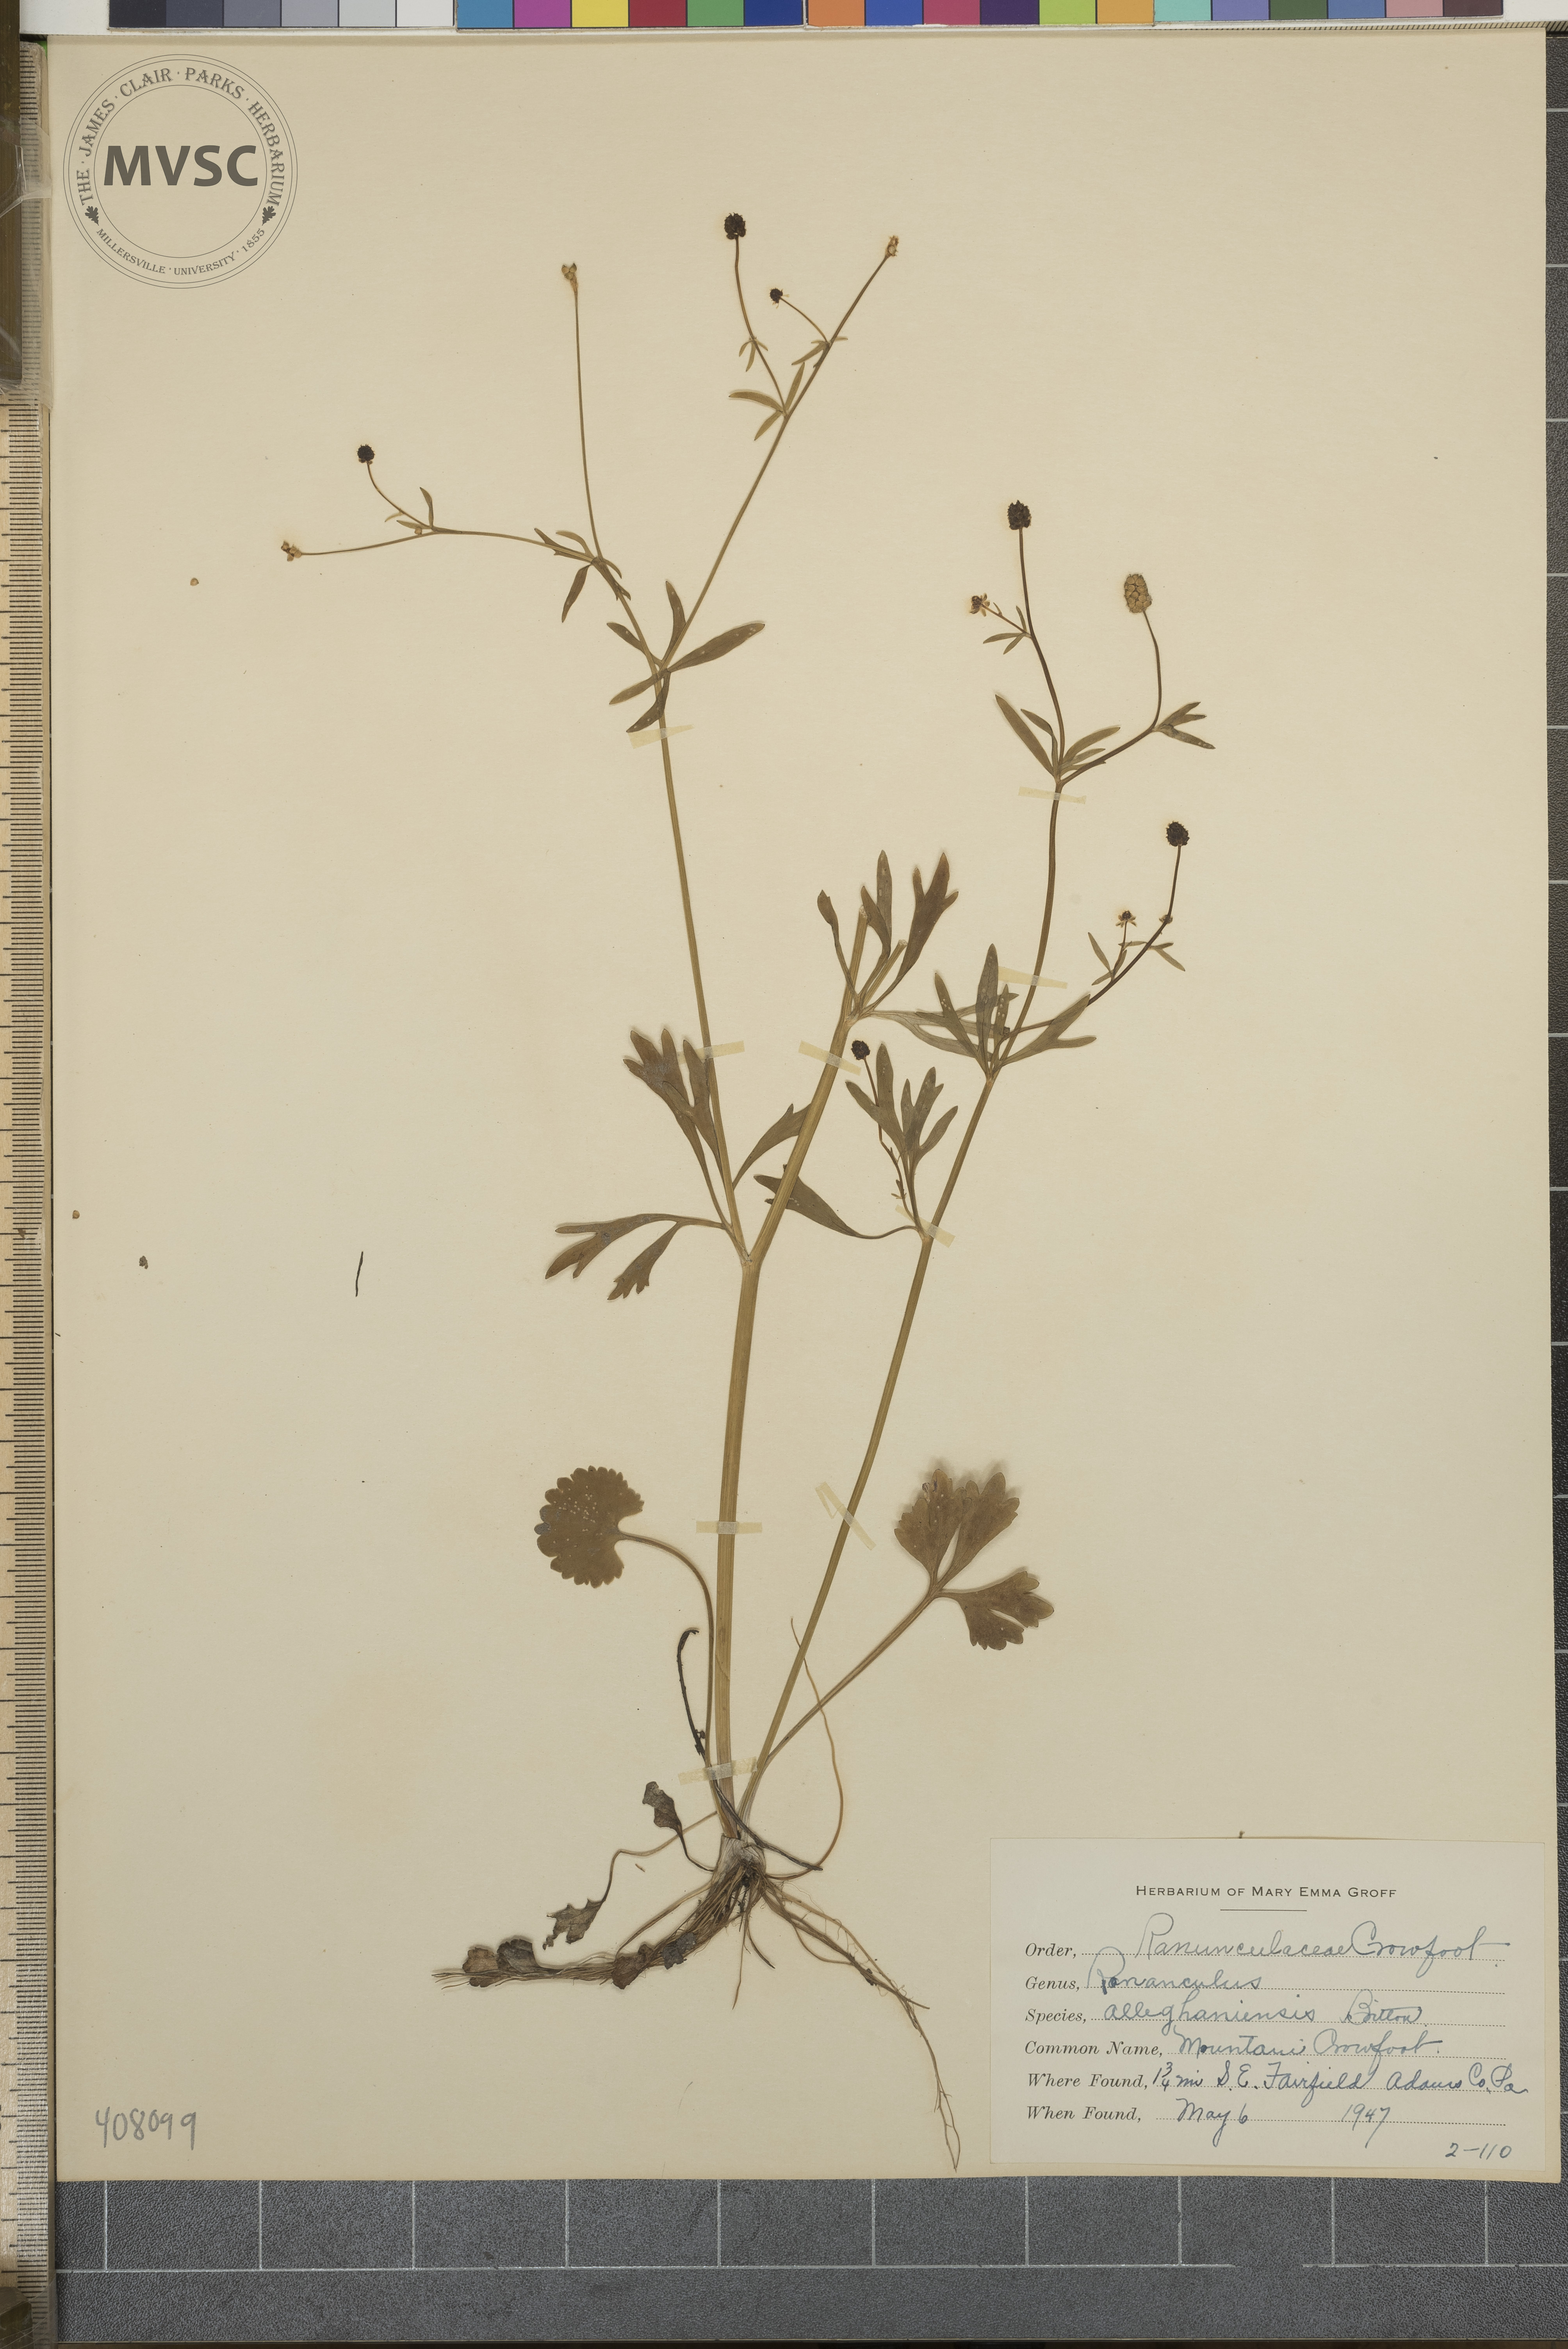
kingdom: Plantae
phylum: Tracheophyta
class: Magnoliopsida
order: Ranunculales
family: Ranunculaceae
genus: Ranunculus
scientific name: Ranunculus allegheniensis
